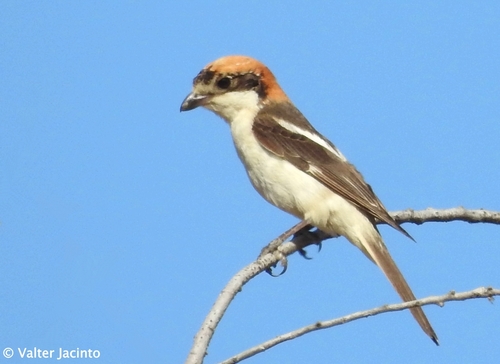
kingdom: Animalia
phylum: Chordata
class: Aves
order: Passeriformes
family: Laniidae
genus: Lanius
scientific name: Lanius senator
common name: Woodchat shrike
